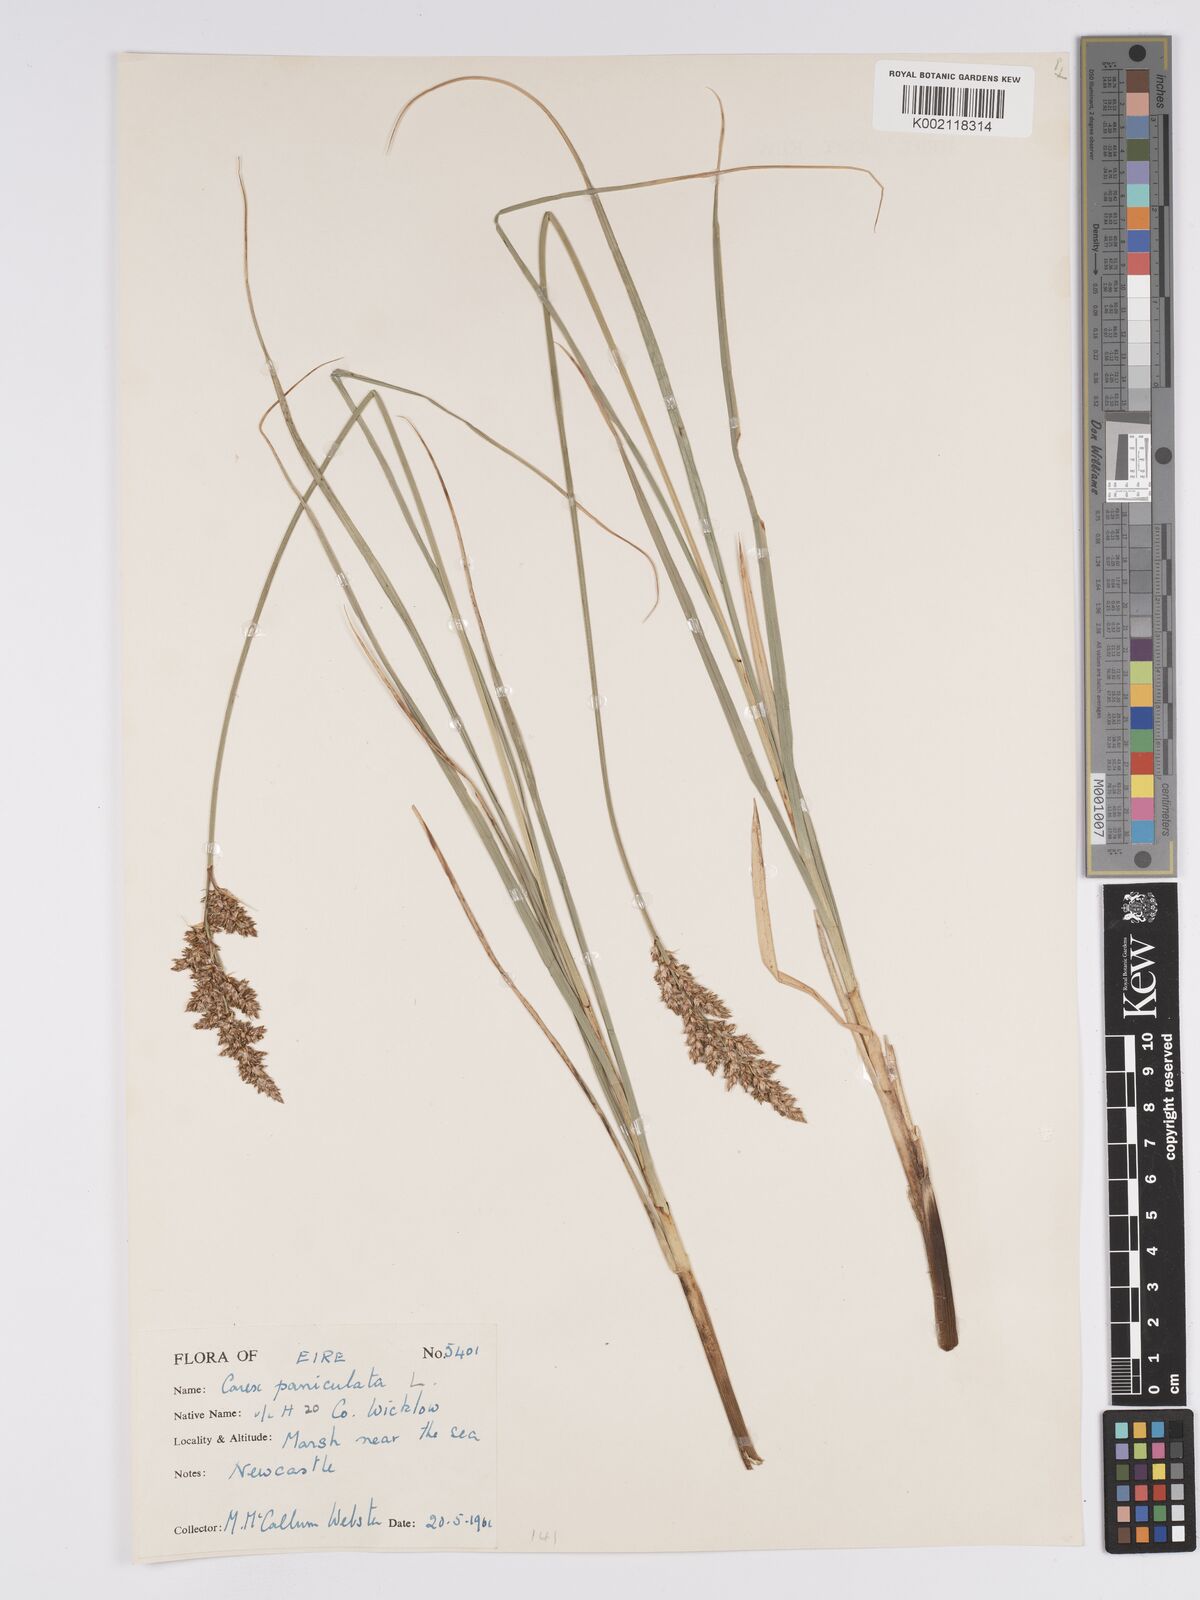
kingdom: Plantae
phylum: Tracheophyta
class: Liliopsida
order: Poales
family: Cyperaceae
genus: Carex
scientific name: Carex paniculata
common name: Greater tussock-sedge
